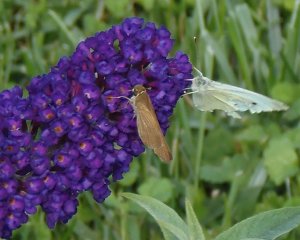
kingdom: Animalia
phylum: Arthropoda
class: Insecta
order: Lepidoptera
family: Hesperiidae
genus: Panoquina
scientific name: Panoquina ocola
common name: Ocola Skipper
